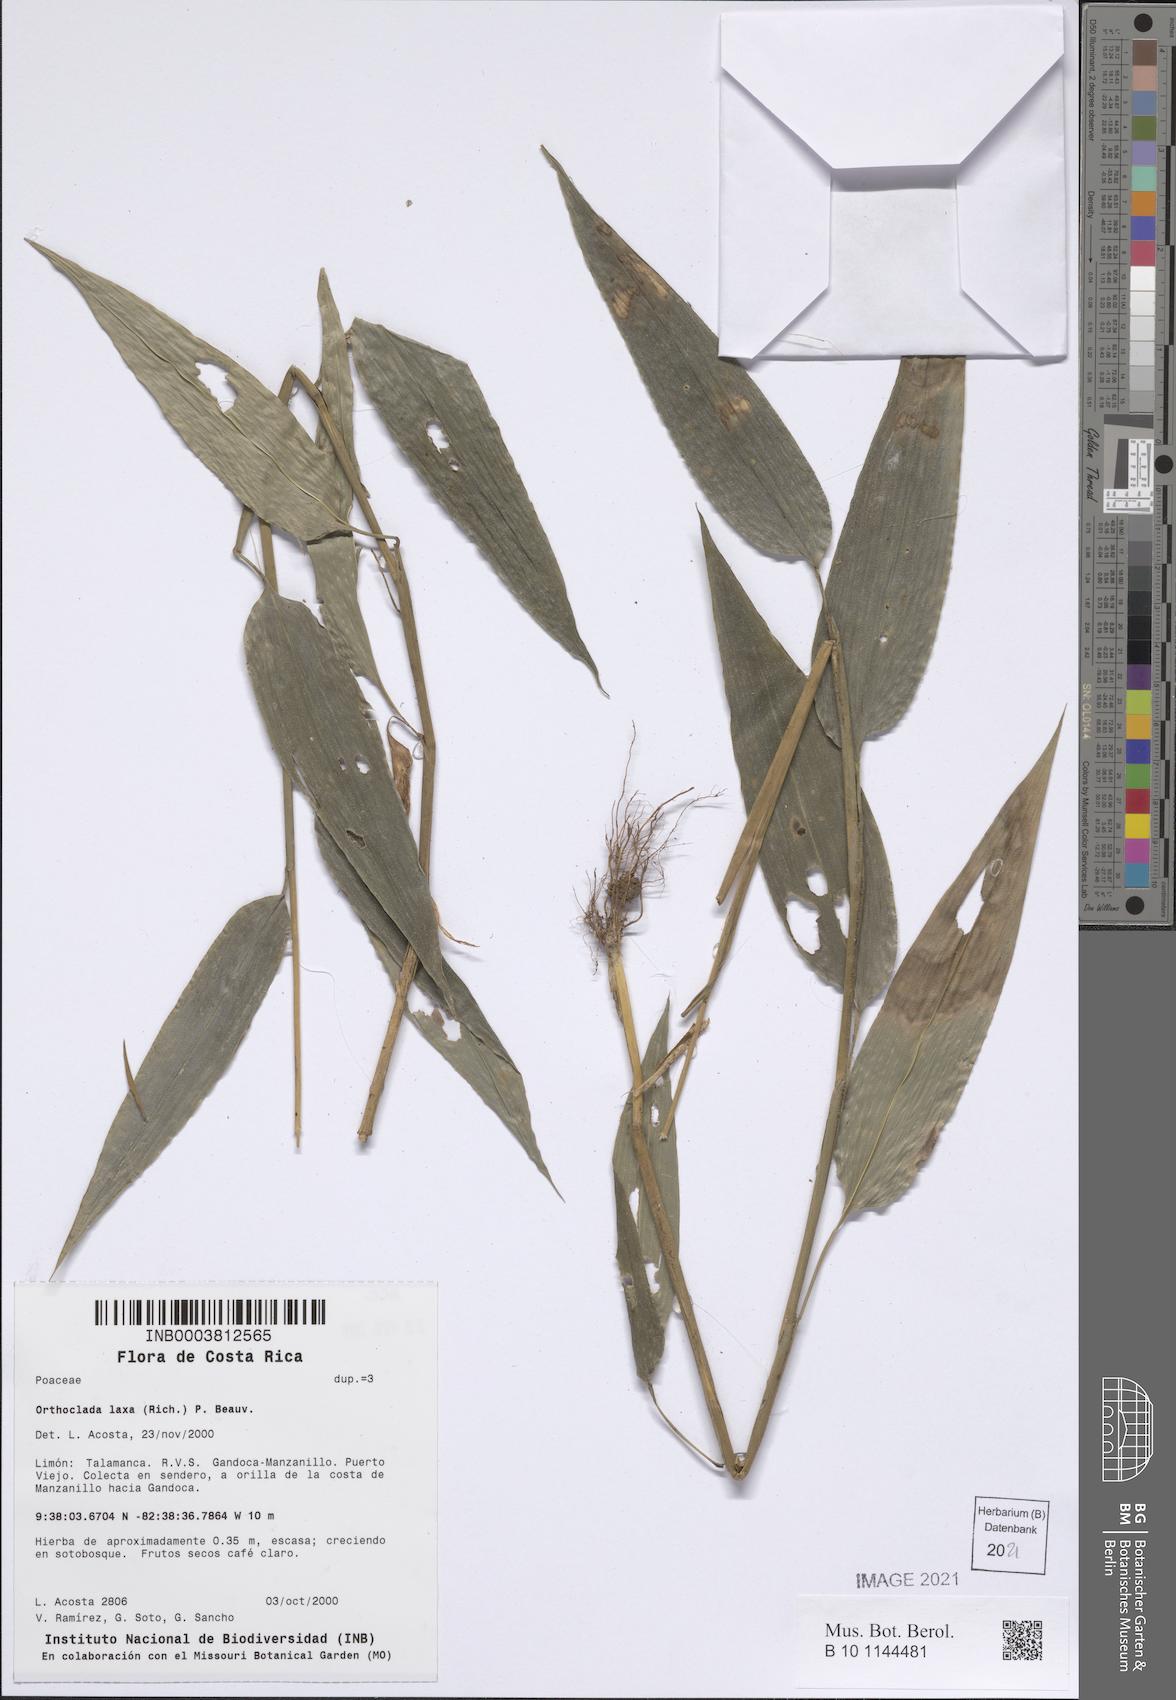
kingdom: Plantae
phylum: Tracheophyta
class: Liliopsida
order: Poales
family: Poaceae
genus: Orthoclada
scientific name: Orthoclada laxa
